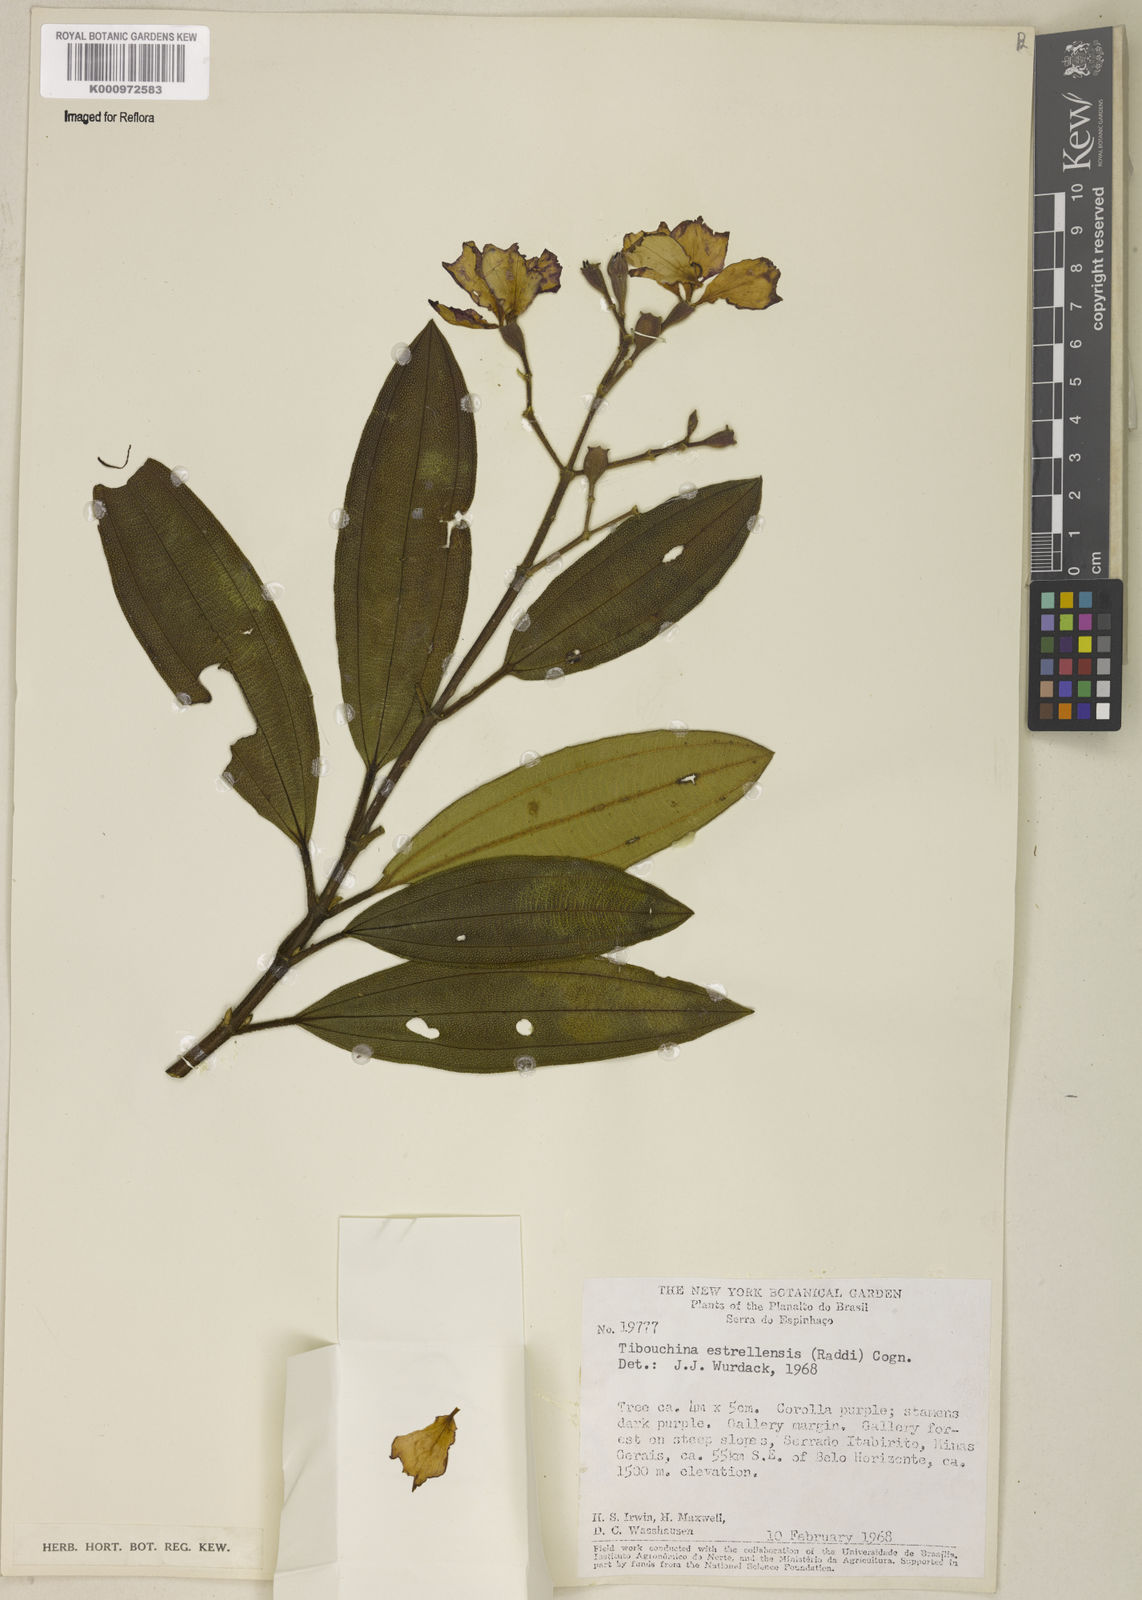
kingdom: Plantae
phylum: Tracheophyta
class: Magnoliopsida
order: Myrtales
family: Melastomataceae
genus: Pleroma
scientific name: Pleroma estrellense
